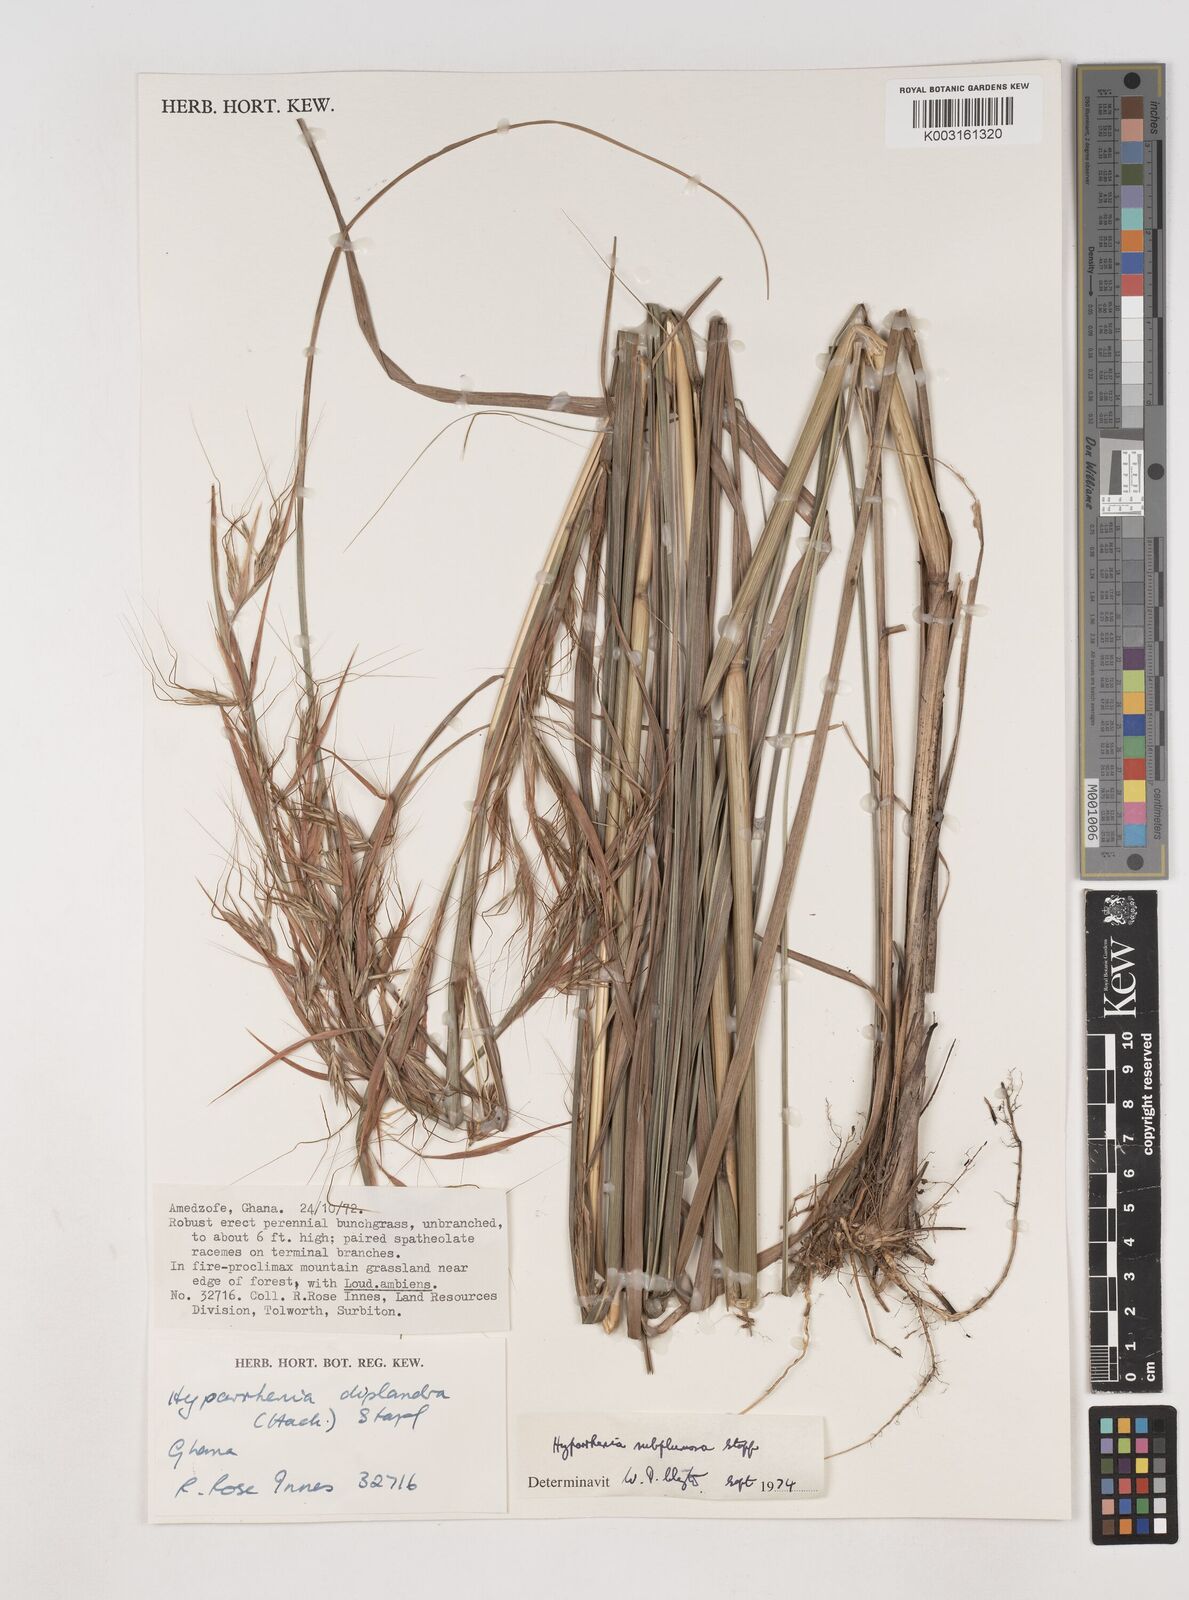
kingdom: Plantae
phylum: Tracheophyta
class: Liliopsida
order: Poales
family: Poaceae
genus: Hyparrhenia
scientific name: Hyparrhenia subplumosa
